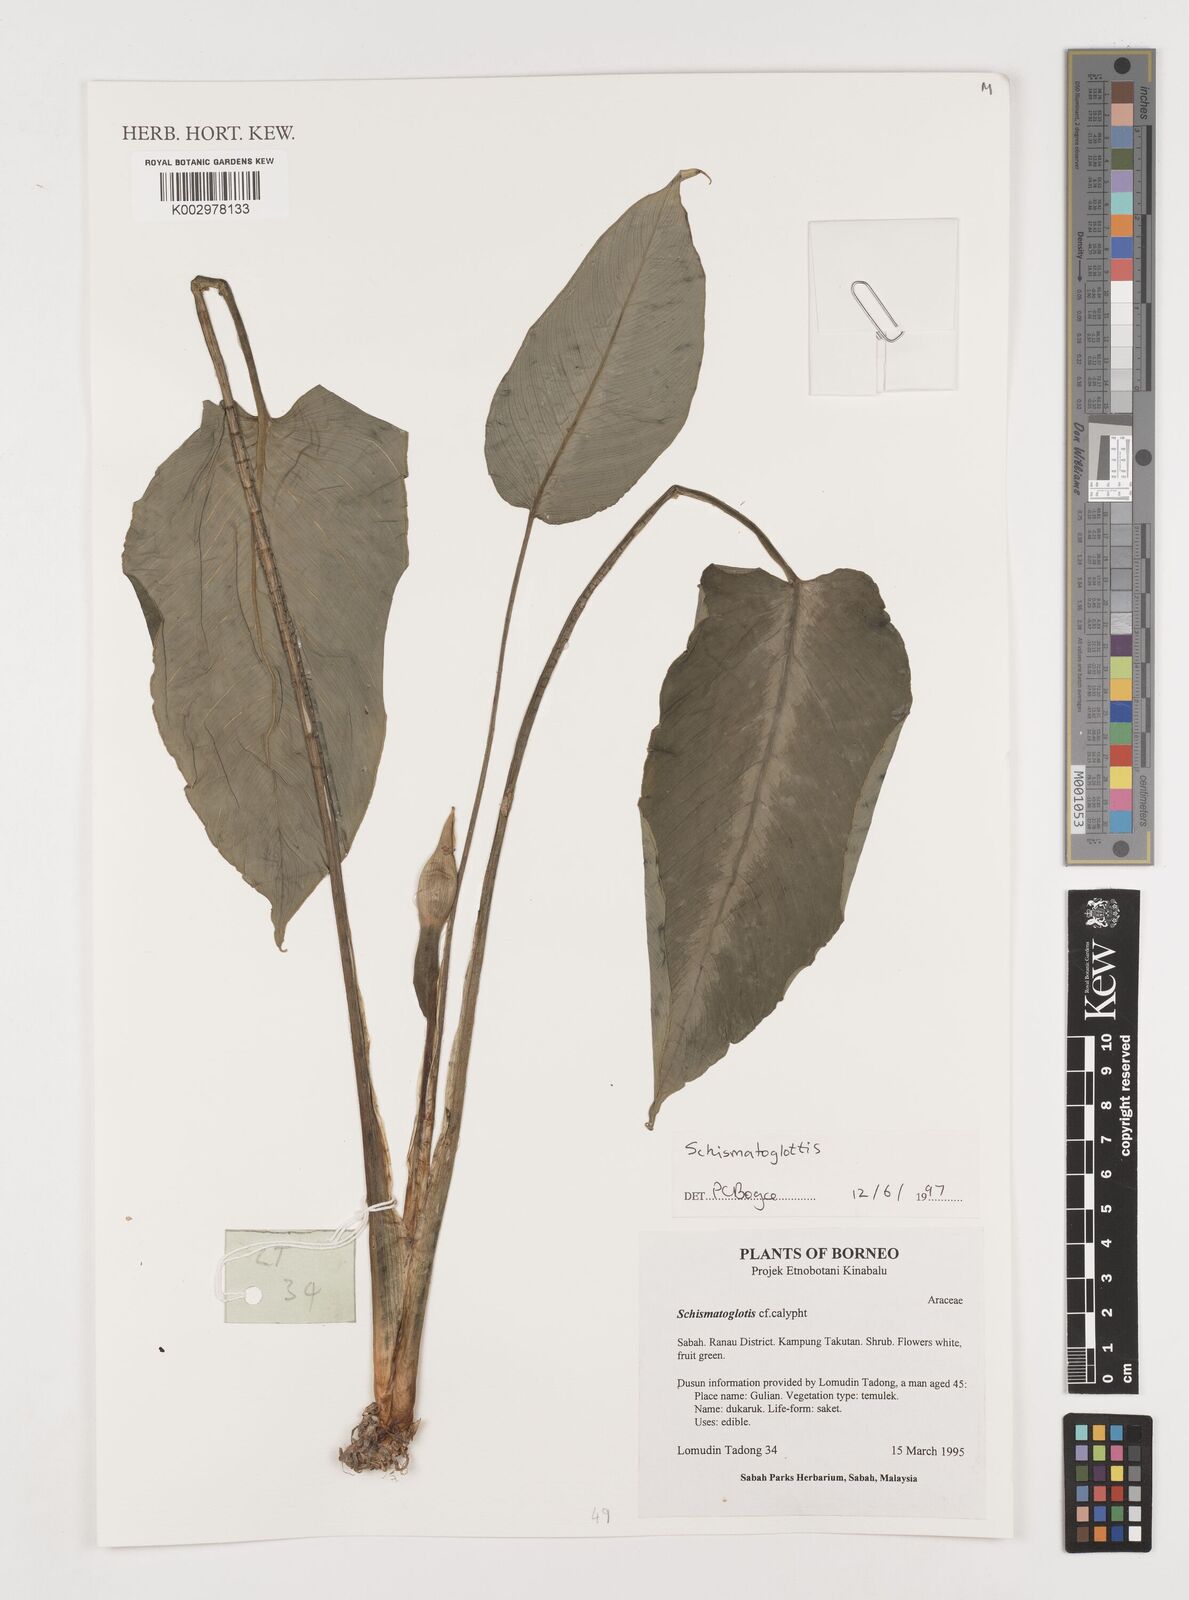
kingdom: Plantae
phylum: Tracheophyta
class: Liliopsida
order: Alismatales
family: Araceae
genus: Schismatoglottis
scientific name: Schismatoglottis
